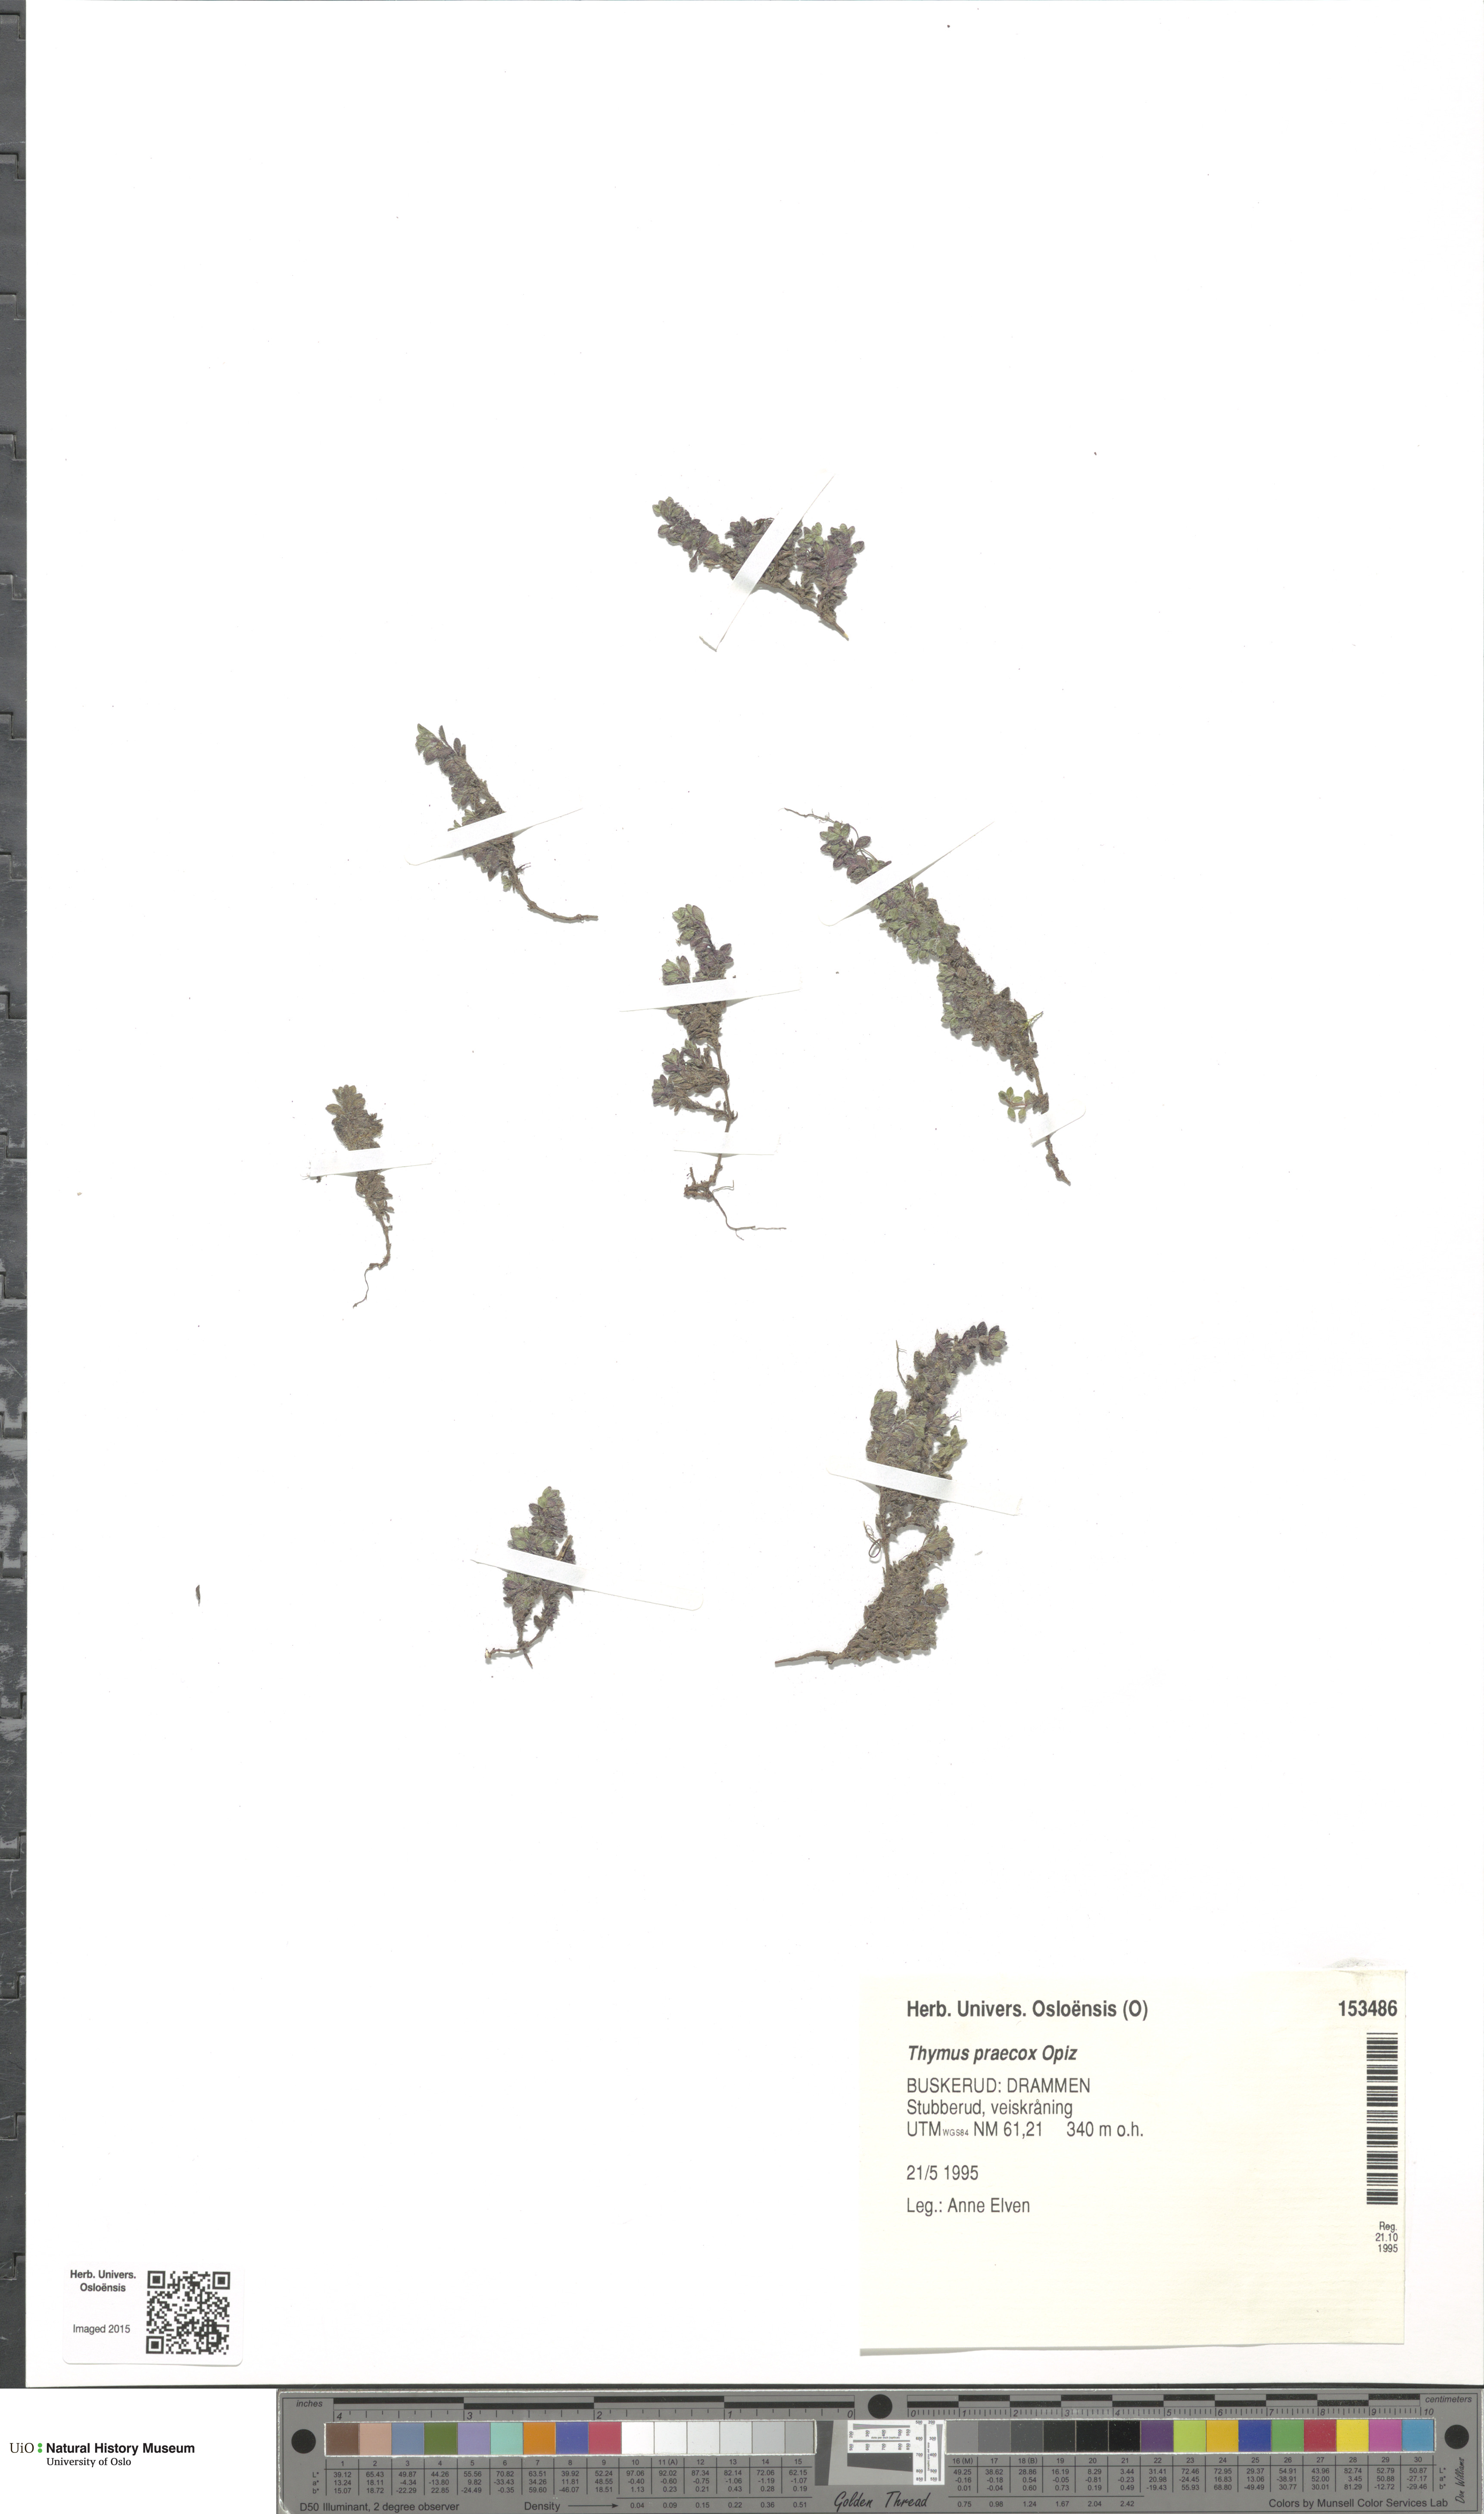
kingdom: Plantae
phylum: Tracheophyta
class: Magnoliopsida
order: Lamiales
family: Lamiaceae
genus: Thymus
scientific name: Thymus praecox
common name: Wild thyme
